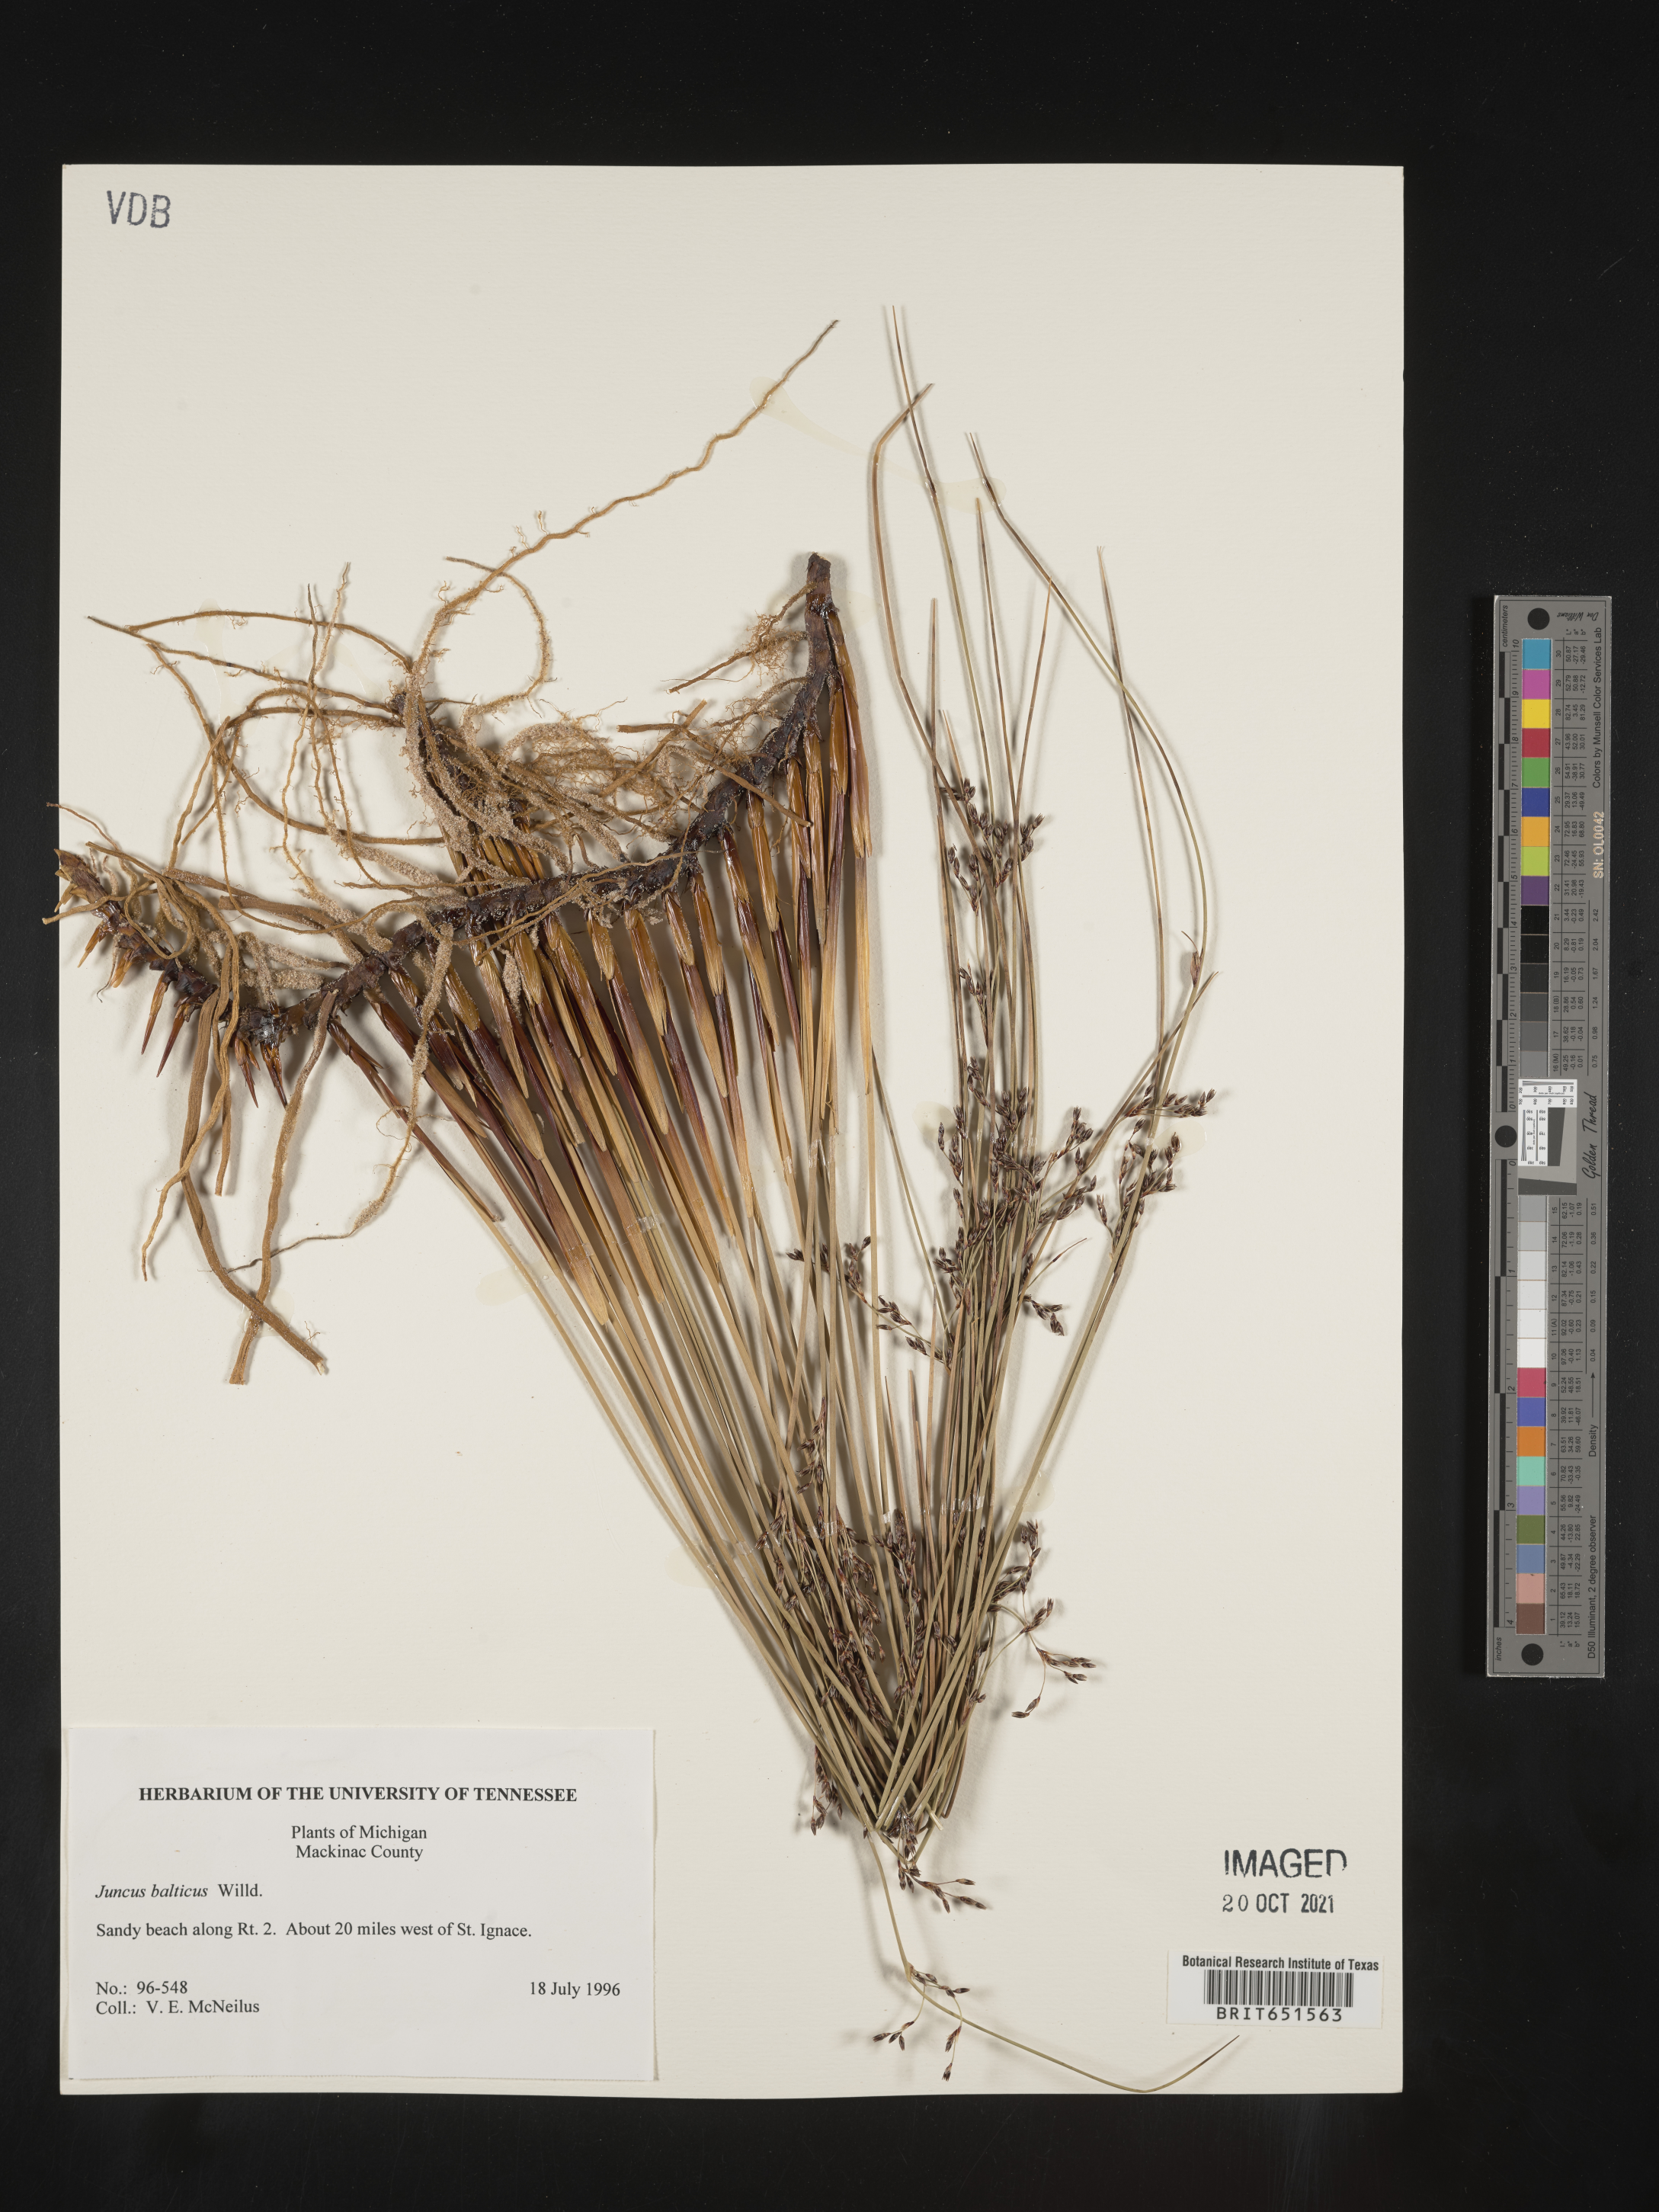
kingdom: Plantae
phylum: Tracheophyta
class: Liliopsida
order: Poales
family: Juncaceae
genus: Juncus
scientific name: Juncus balticus
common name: Baltic rush
